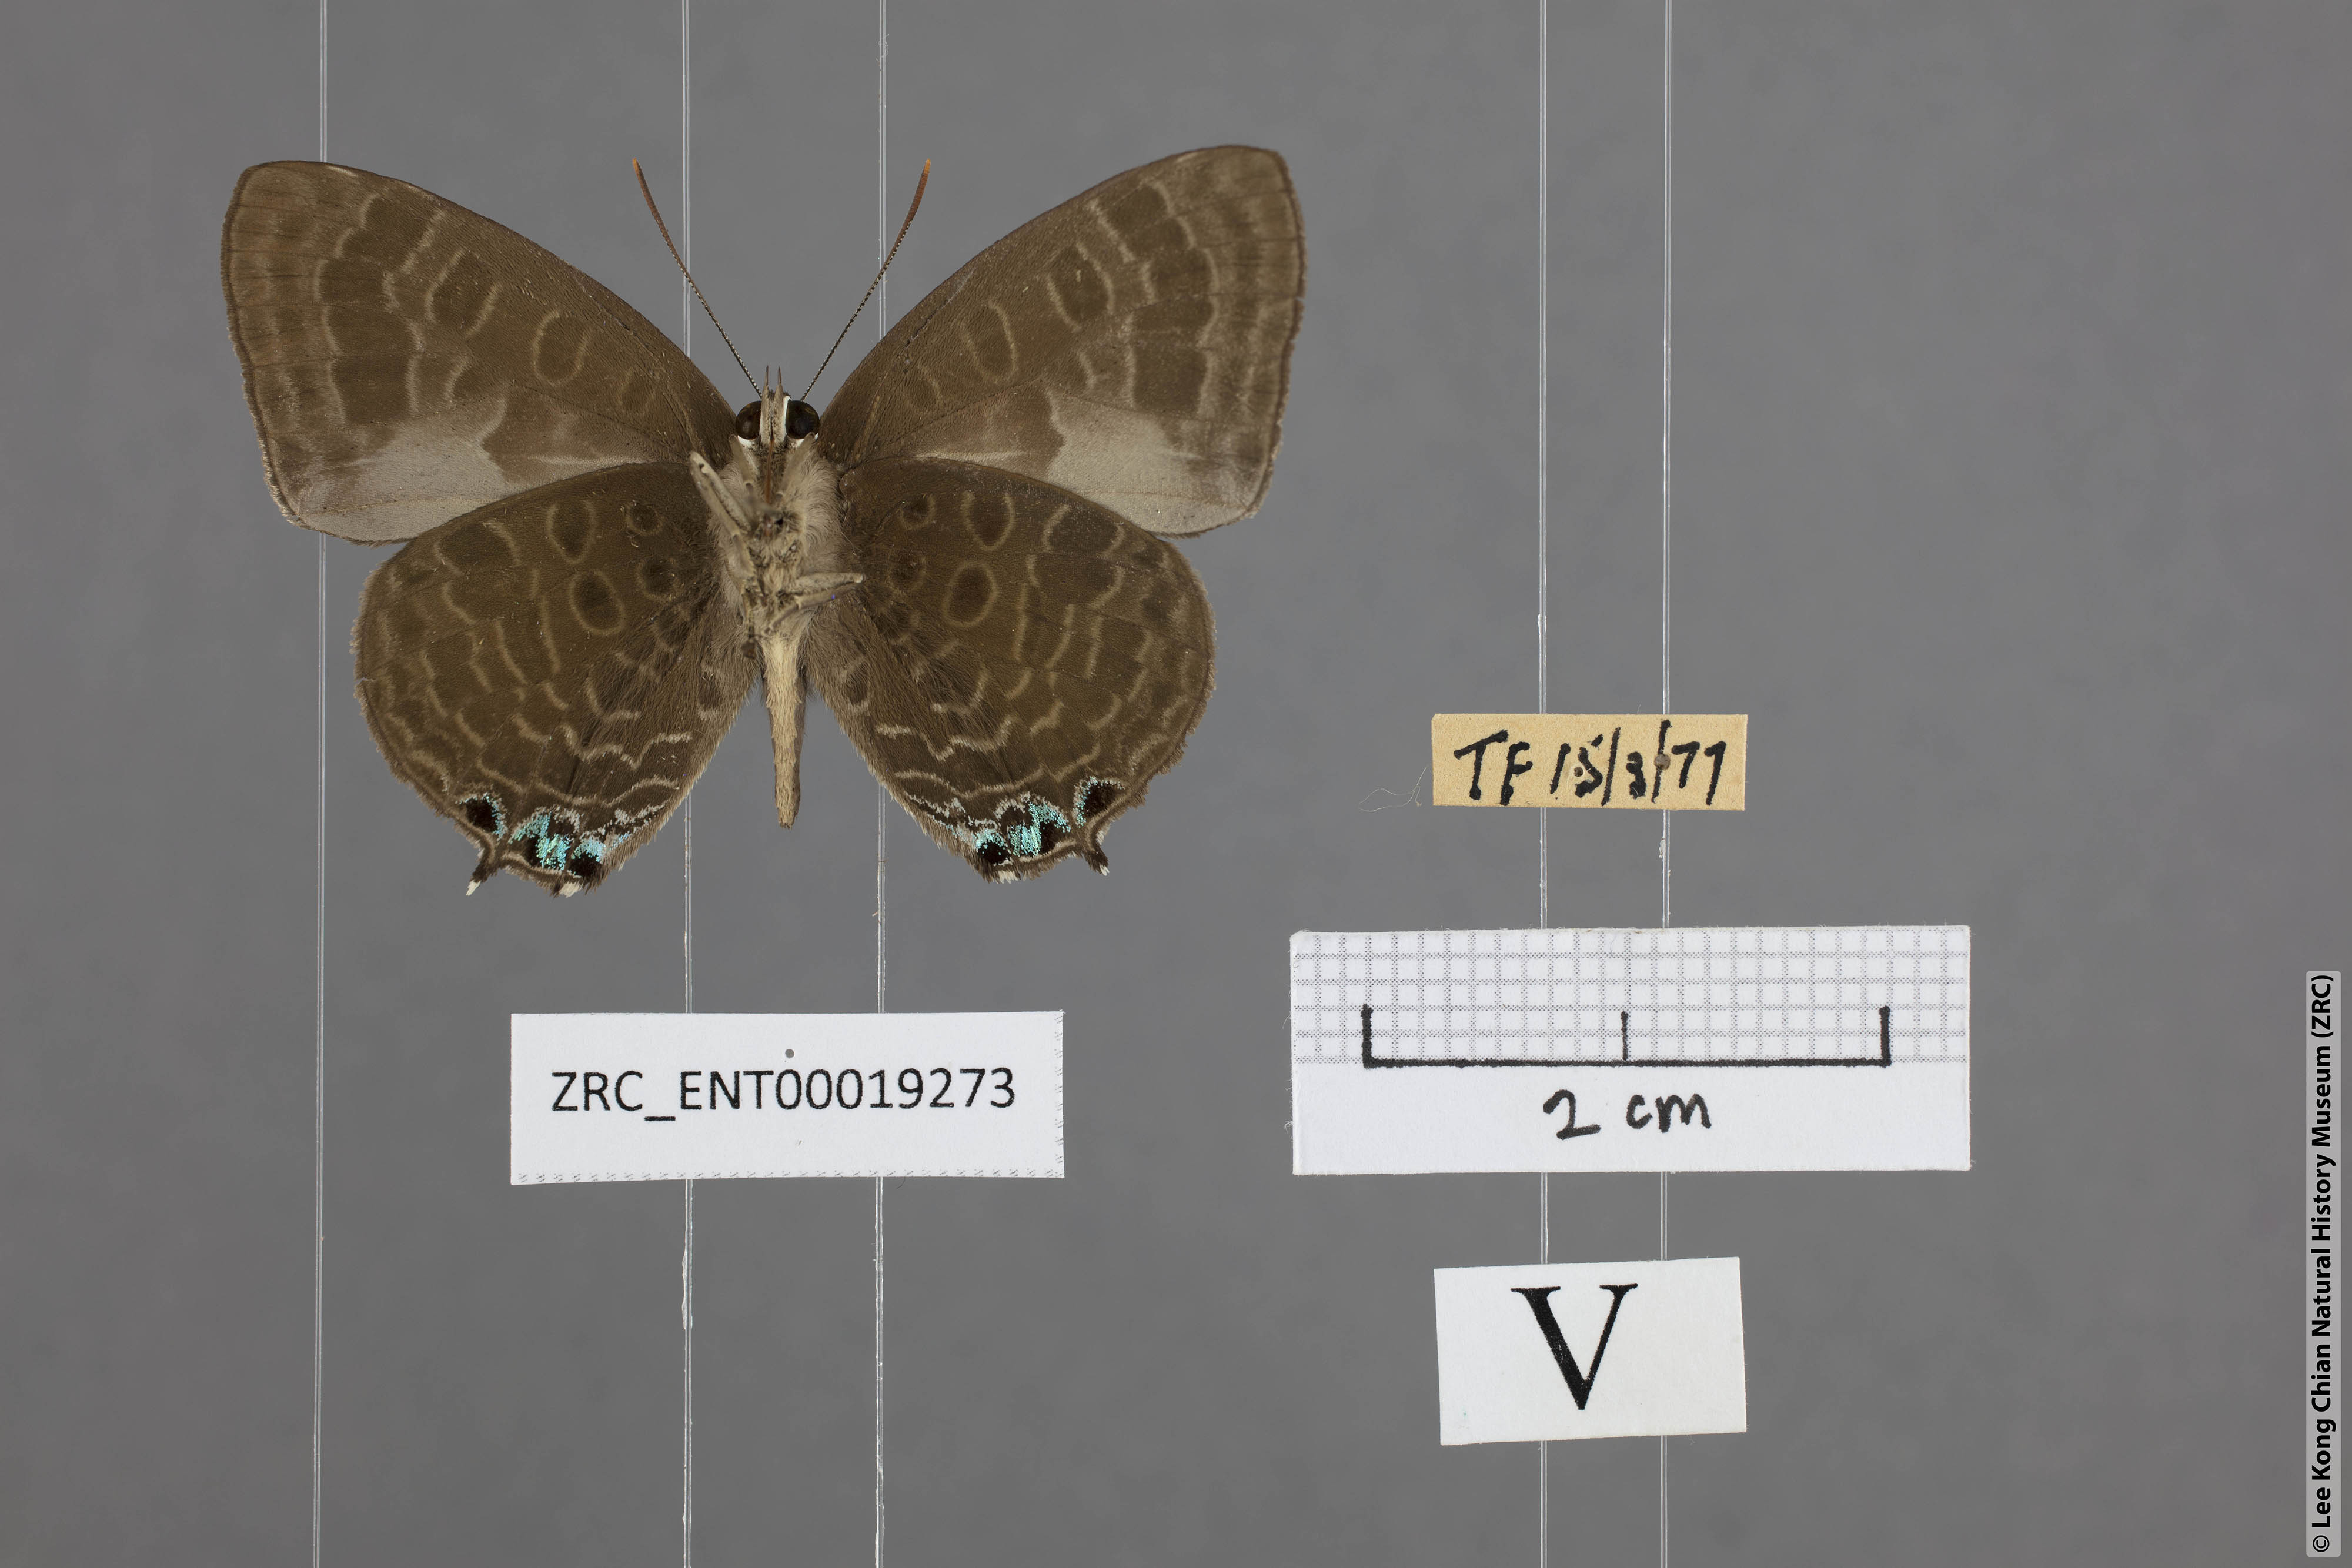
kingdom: Animalia
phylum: Arthropoda
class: Insecta
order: Lepidoptera
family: Lycaenidae
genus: Arhopala
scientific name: Arhopala aurea
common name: Long-celled oakblue
